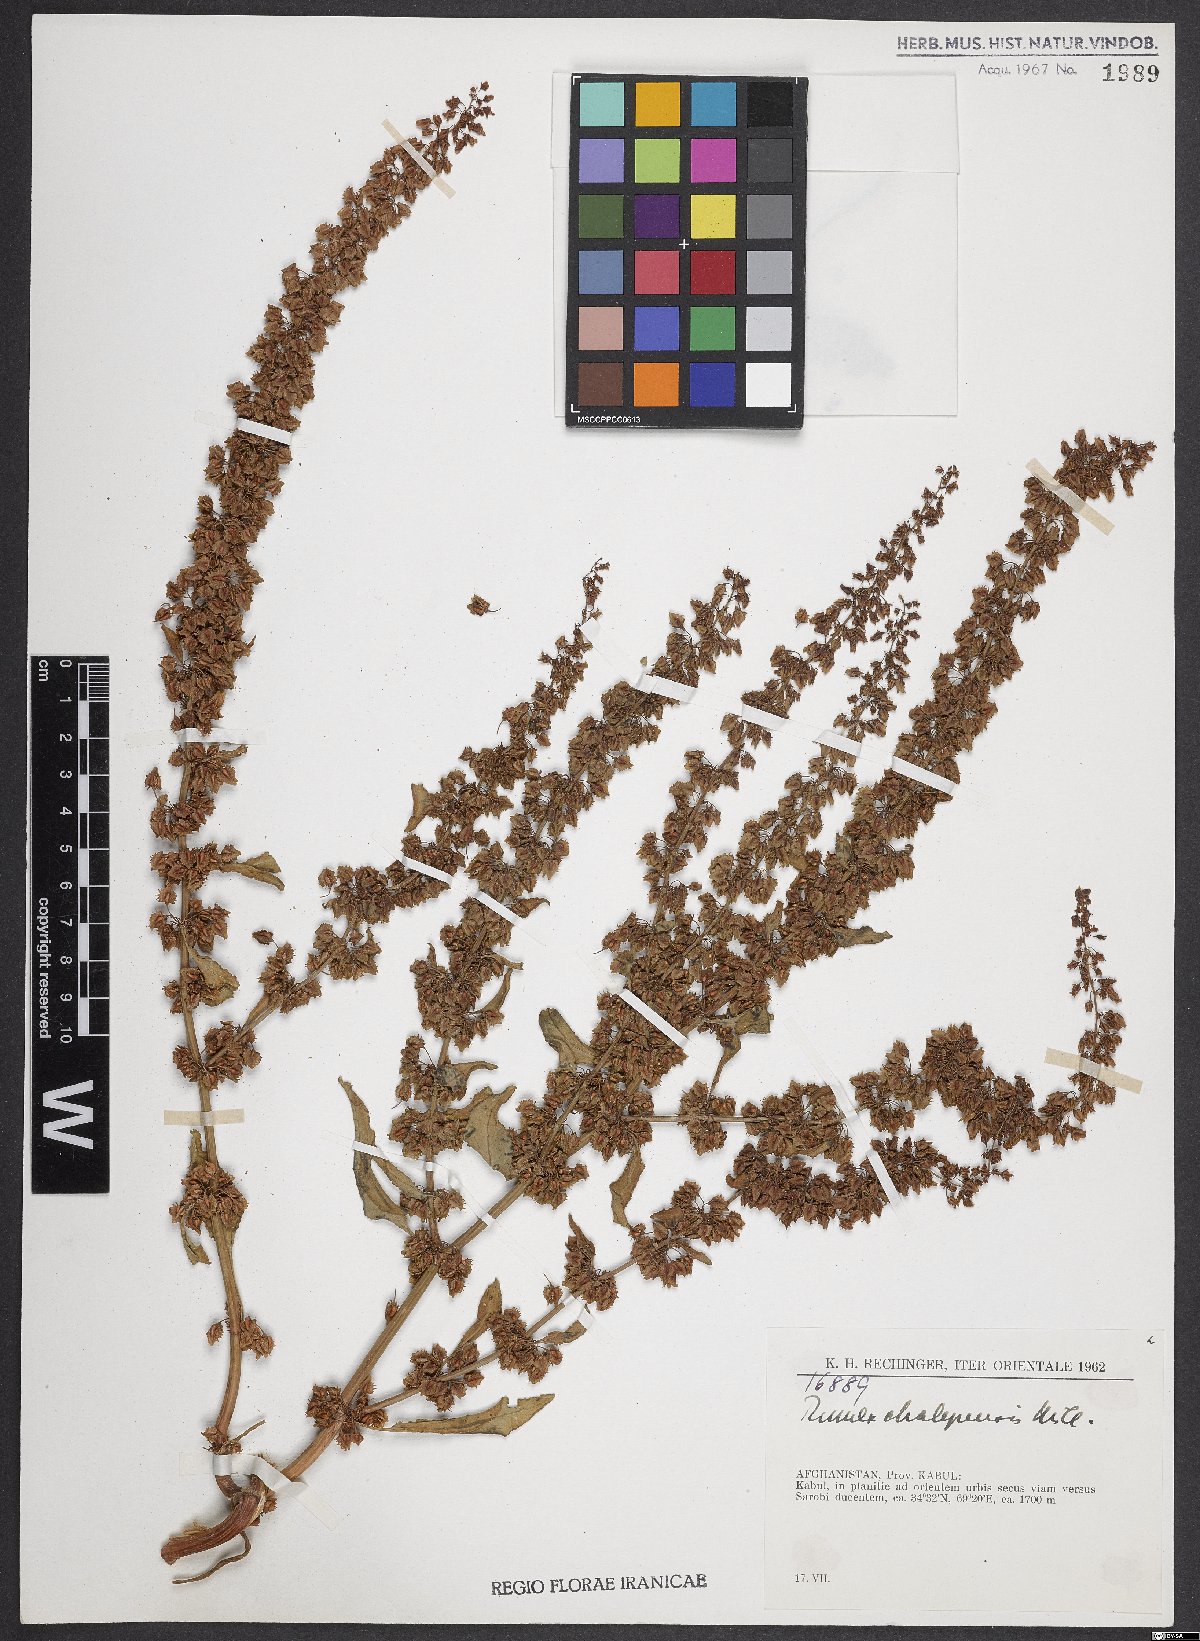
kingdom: Plantae
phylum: Tracheophyta
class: Magnoliopsida
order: Caryophyllales
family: Polygonaceae
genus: Rumex
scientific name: Rumex chalepensis
